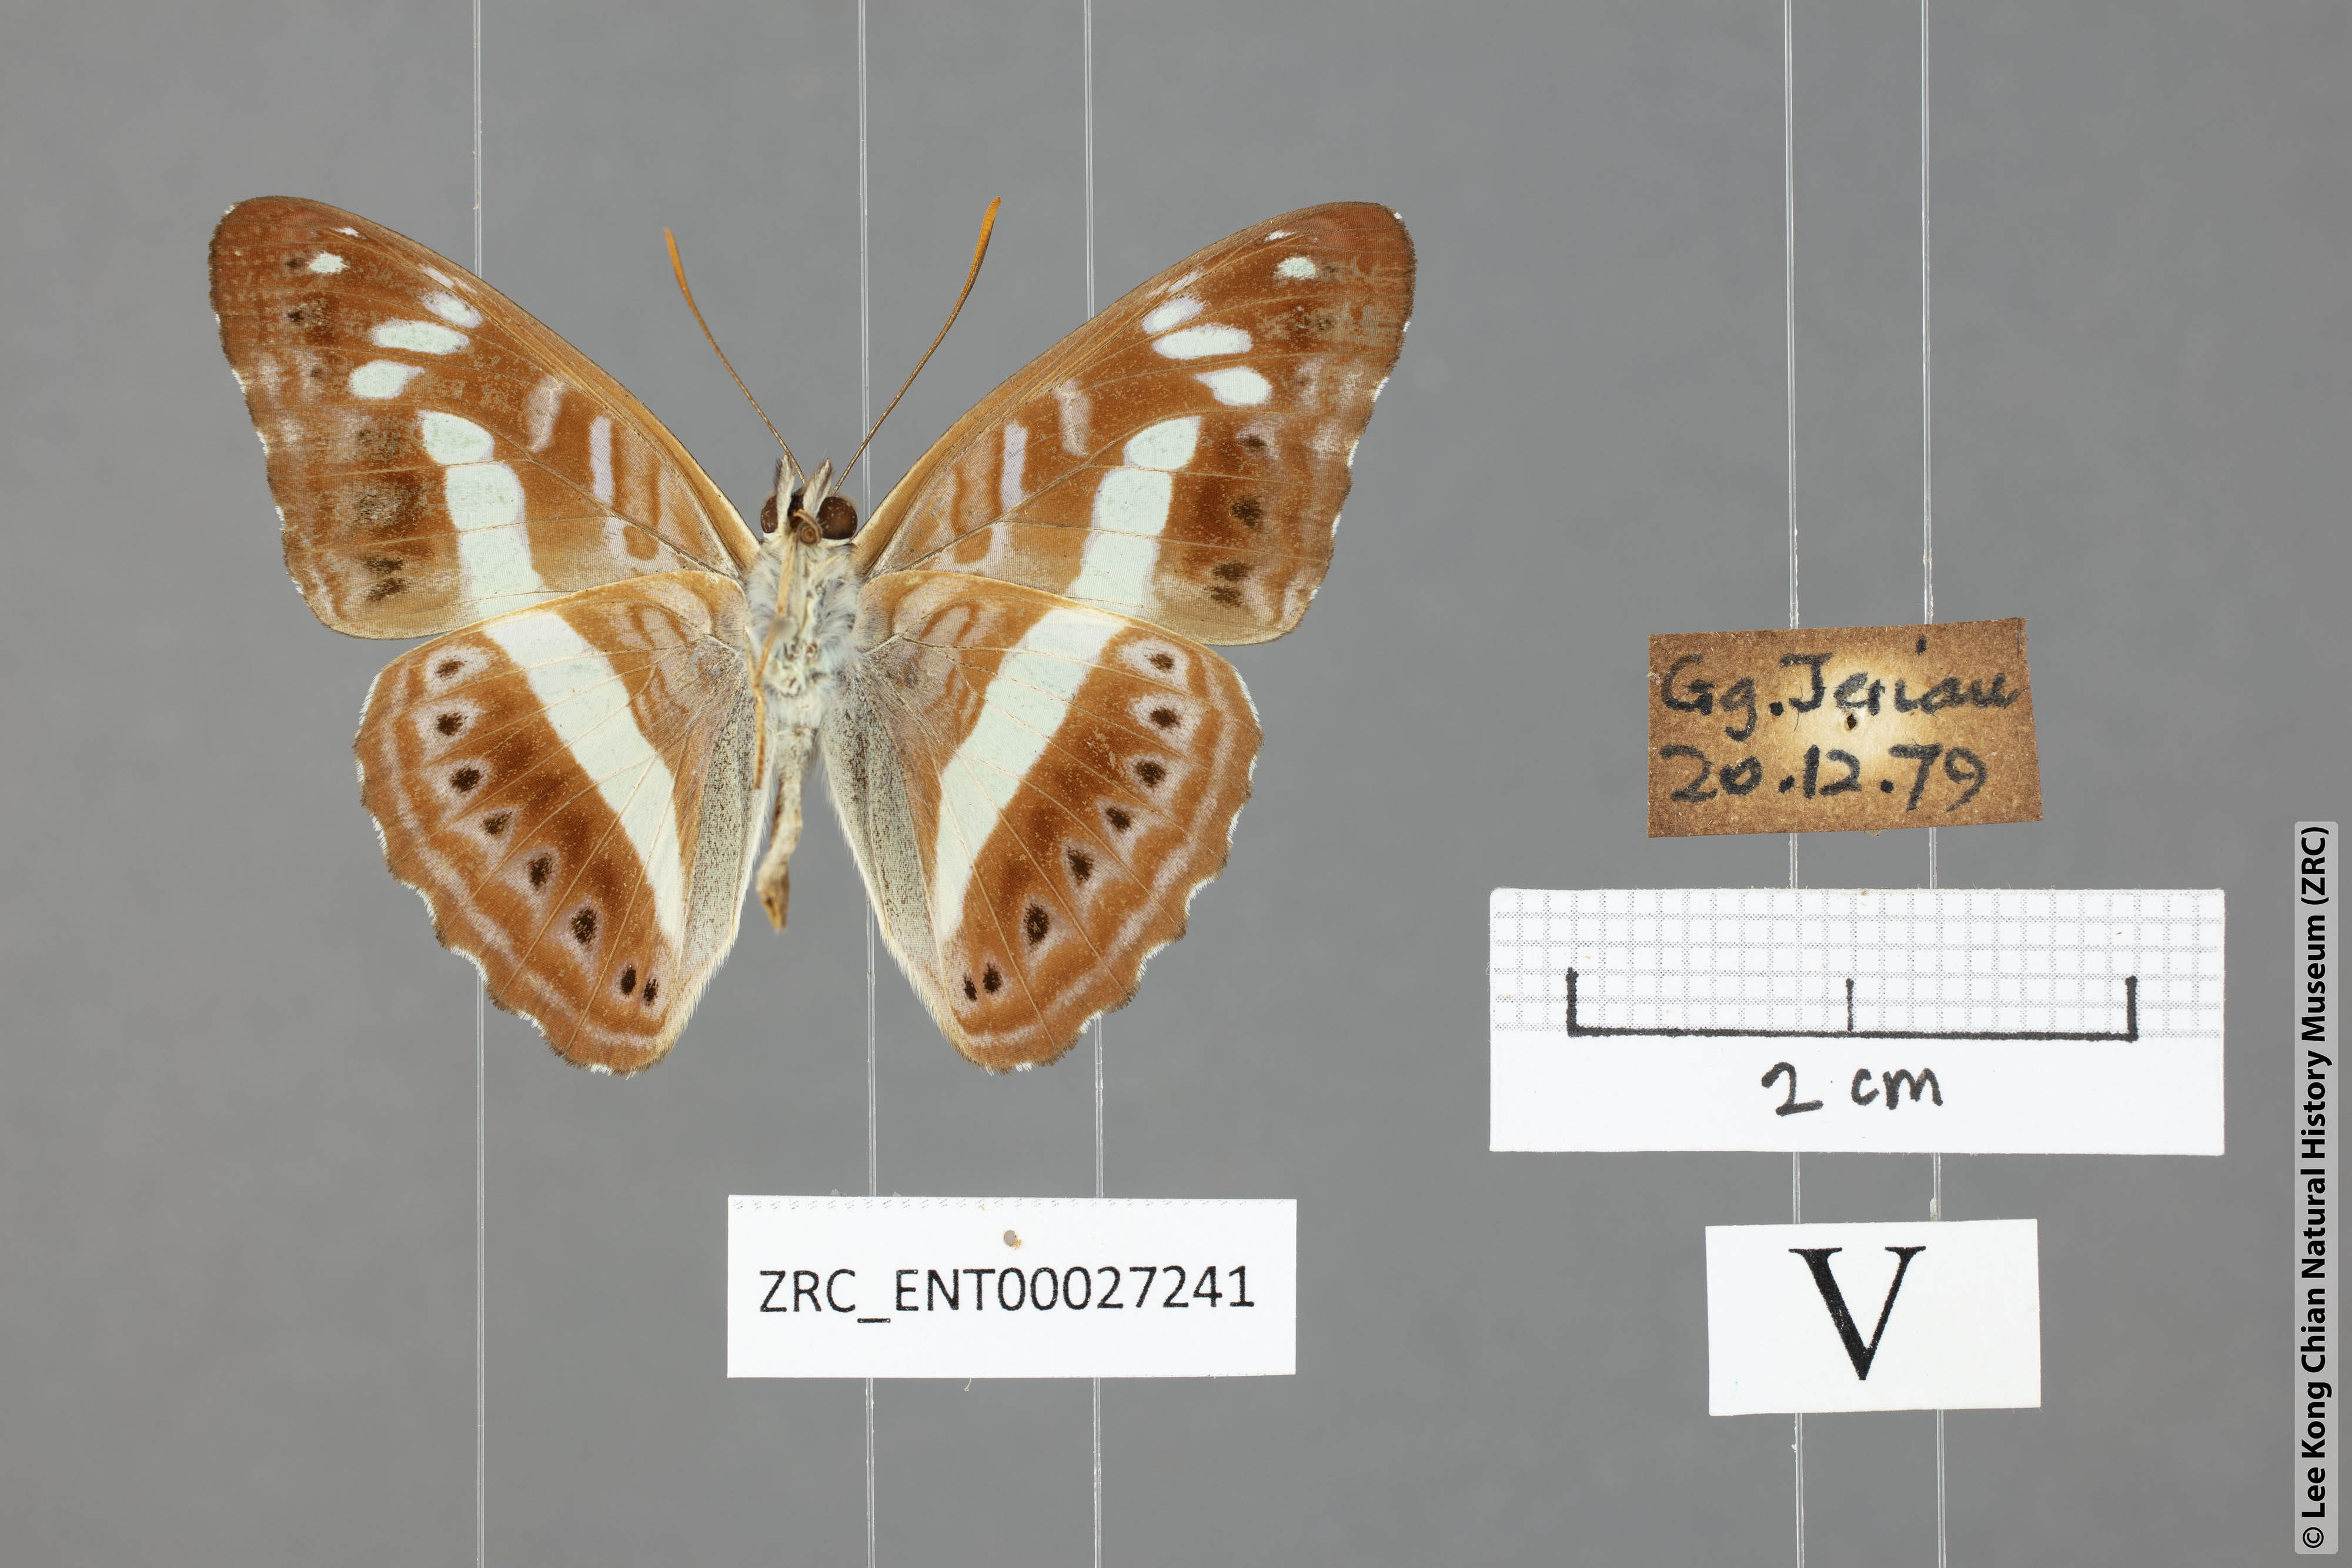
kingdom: Animalia
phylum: Arthropoda
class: Insecta
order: Lepidoptera
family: Nymphalidae
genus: Limenitis
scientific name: Limenitis
